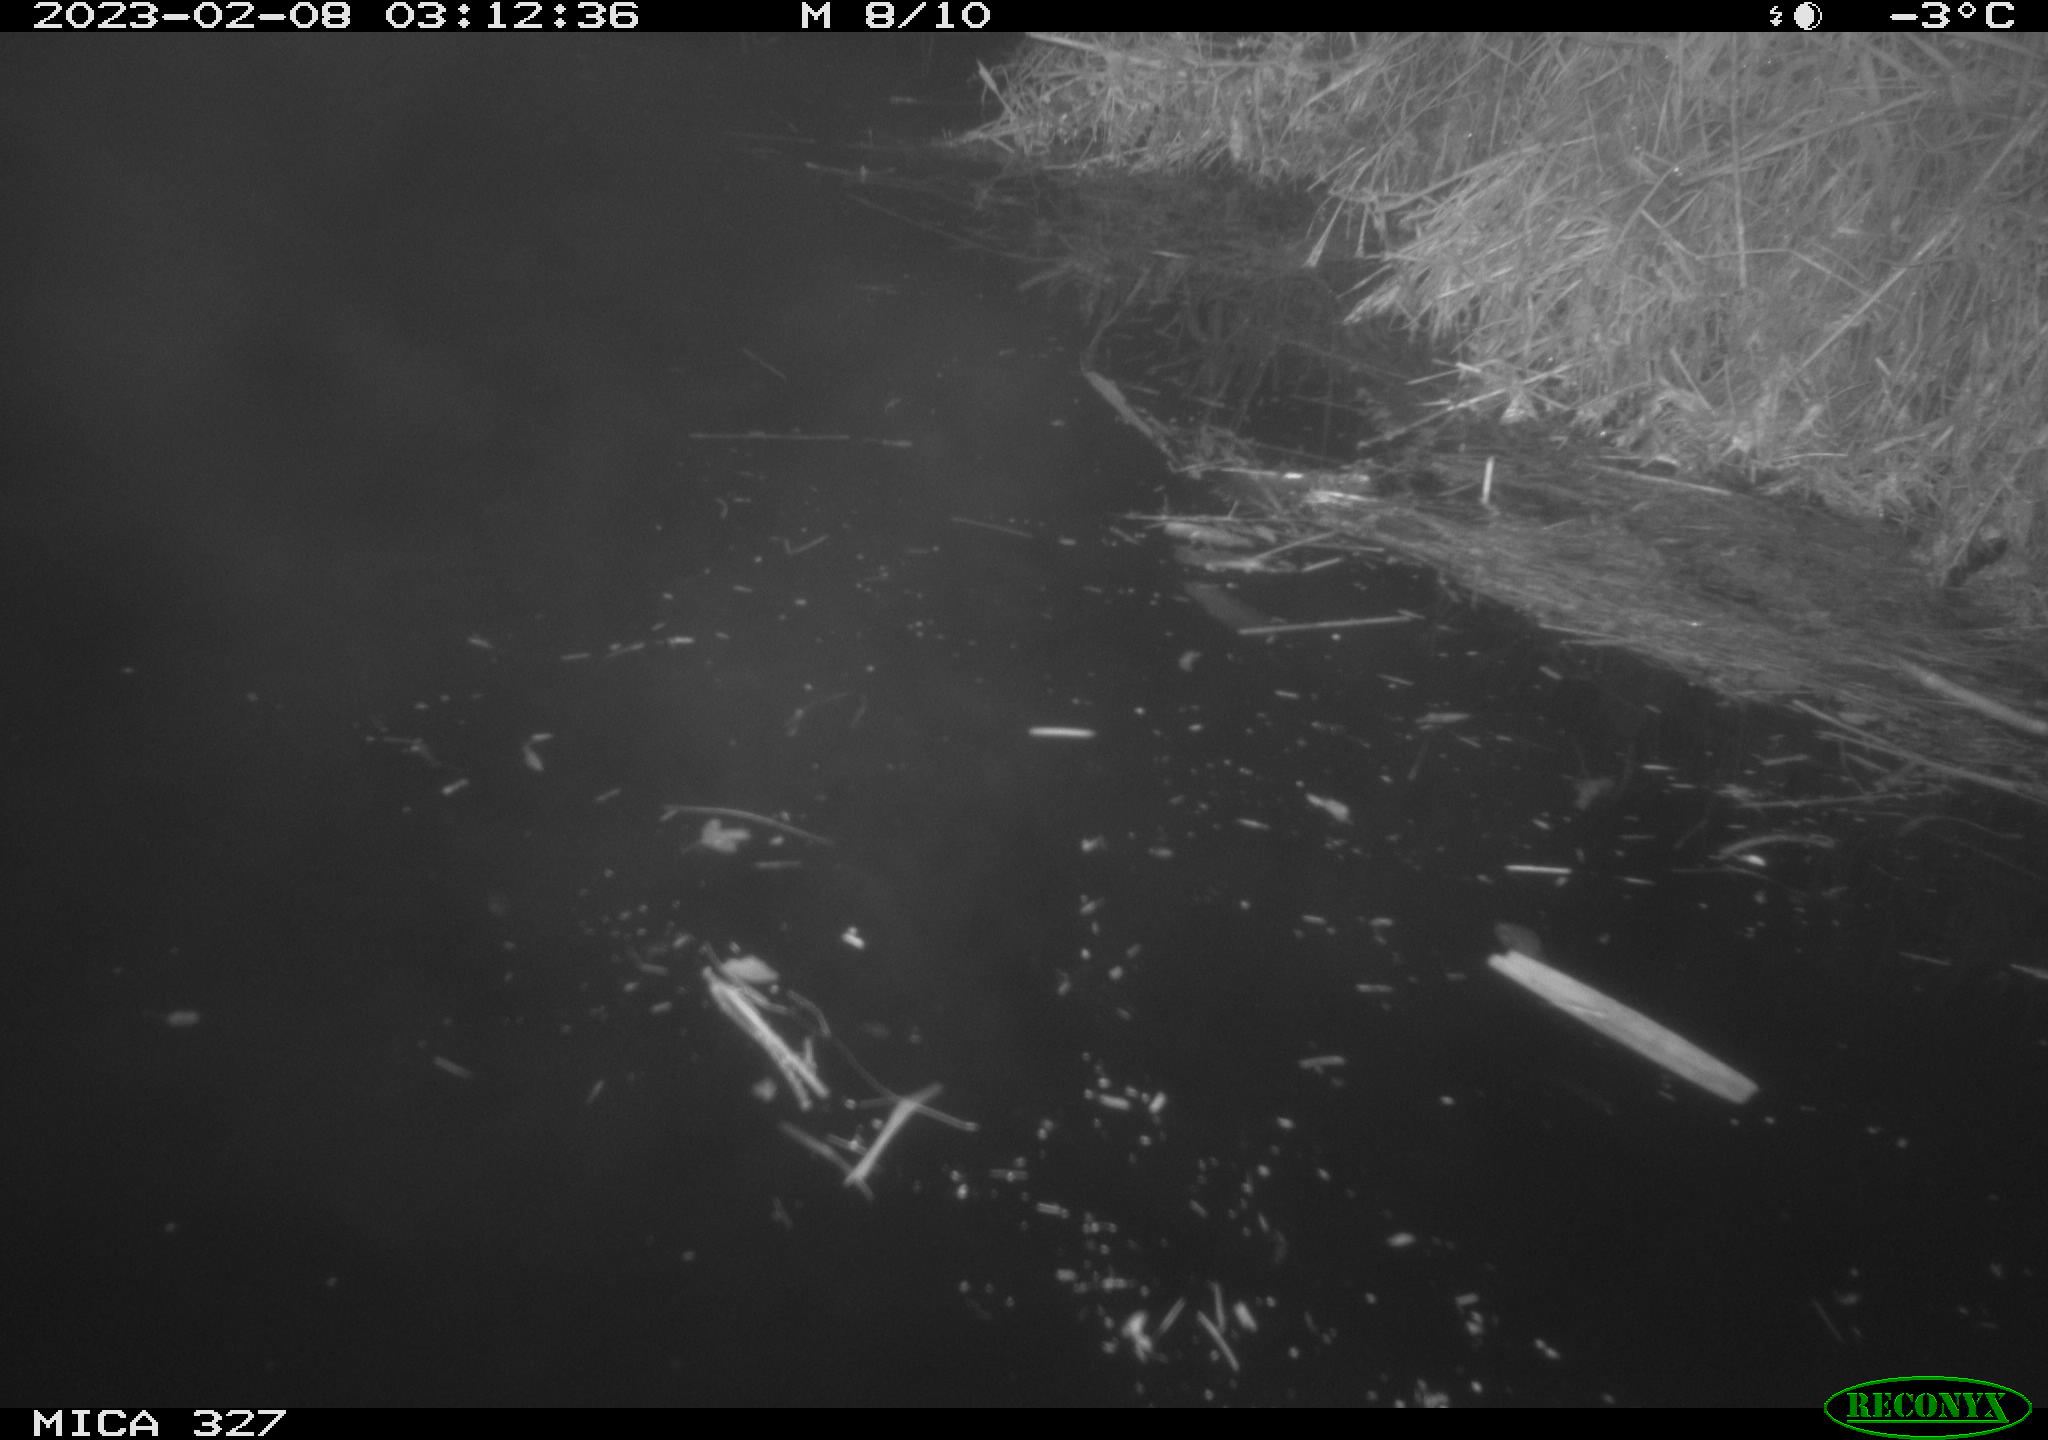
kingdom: Animalia
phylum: Chordata
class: Mammalia
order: Rodentia
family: Cricetidae
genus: Ondatra
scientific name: Ondatra zibethicus
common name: Muskrat
